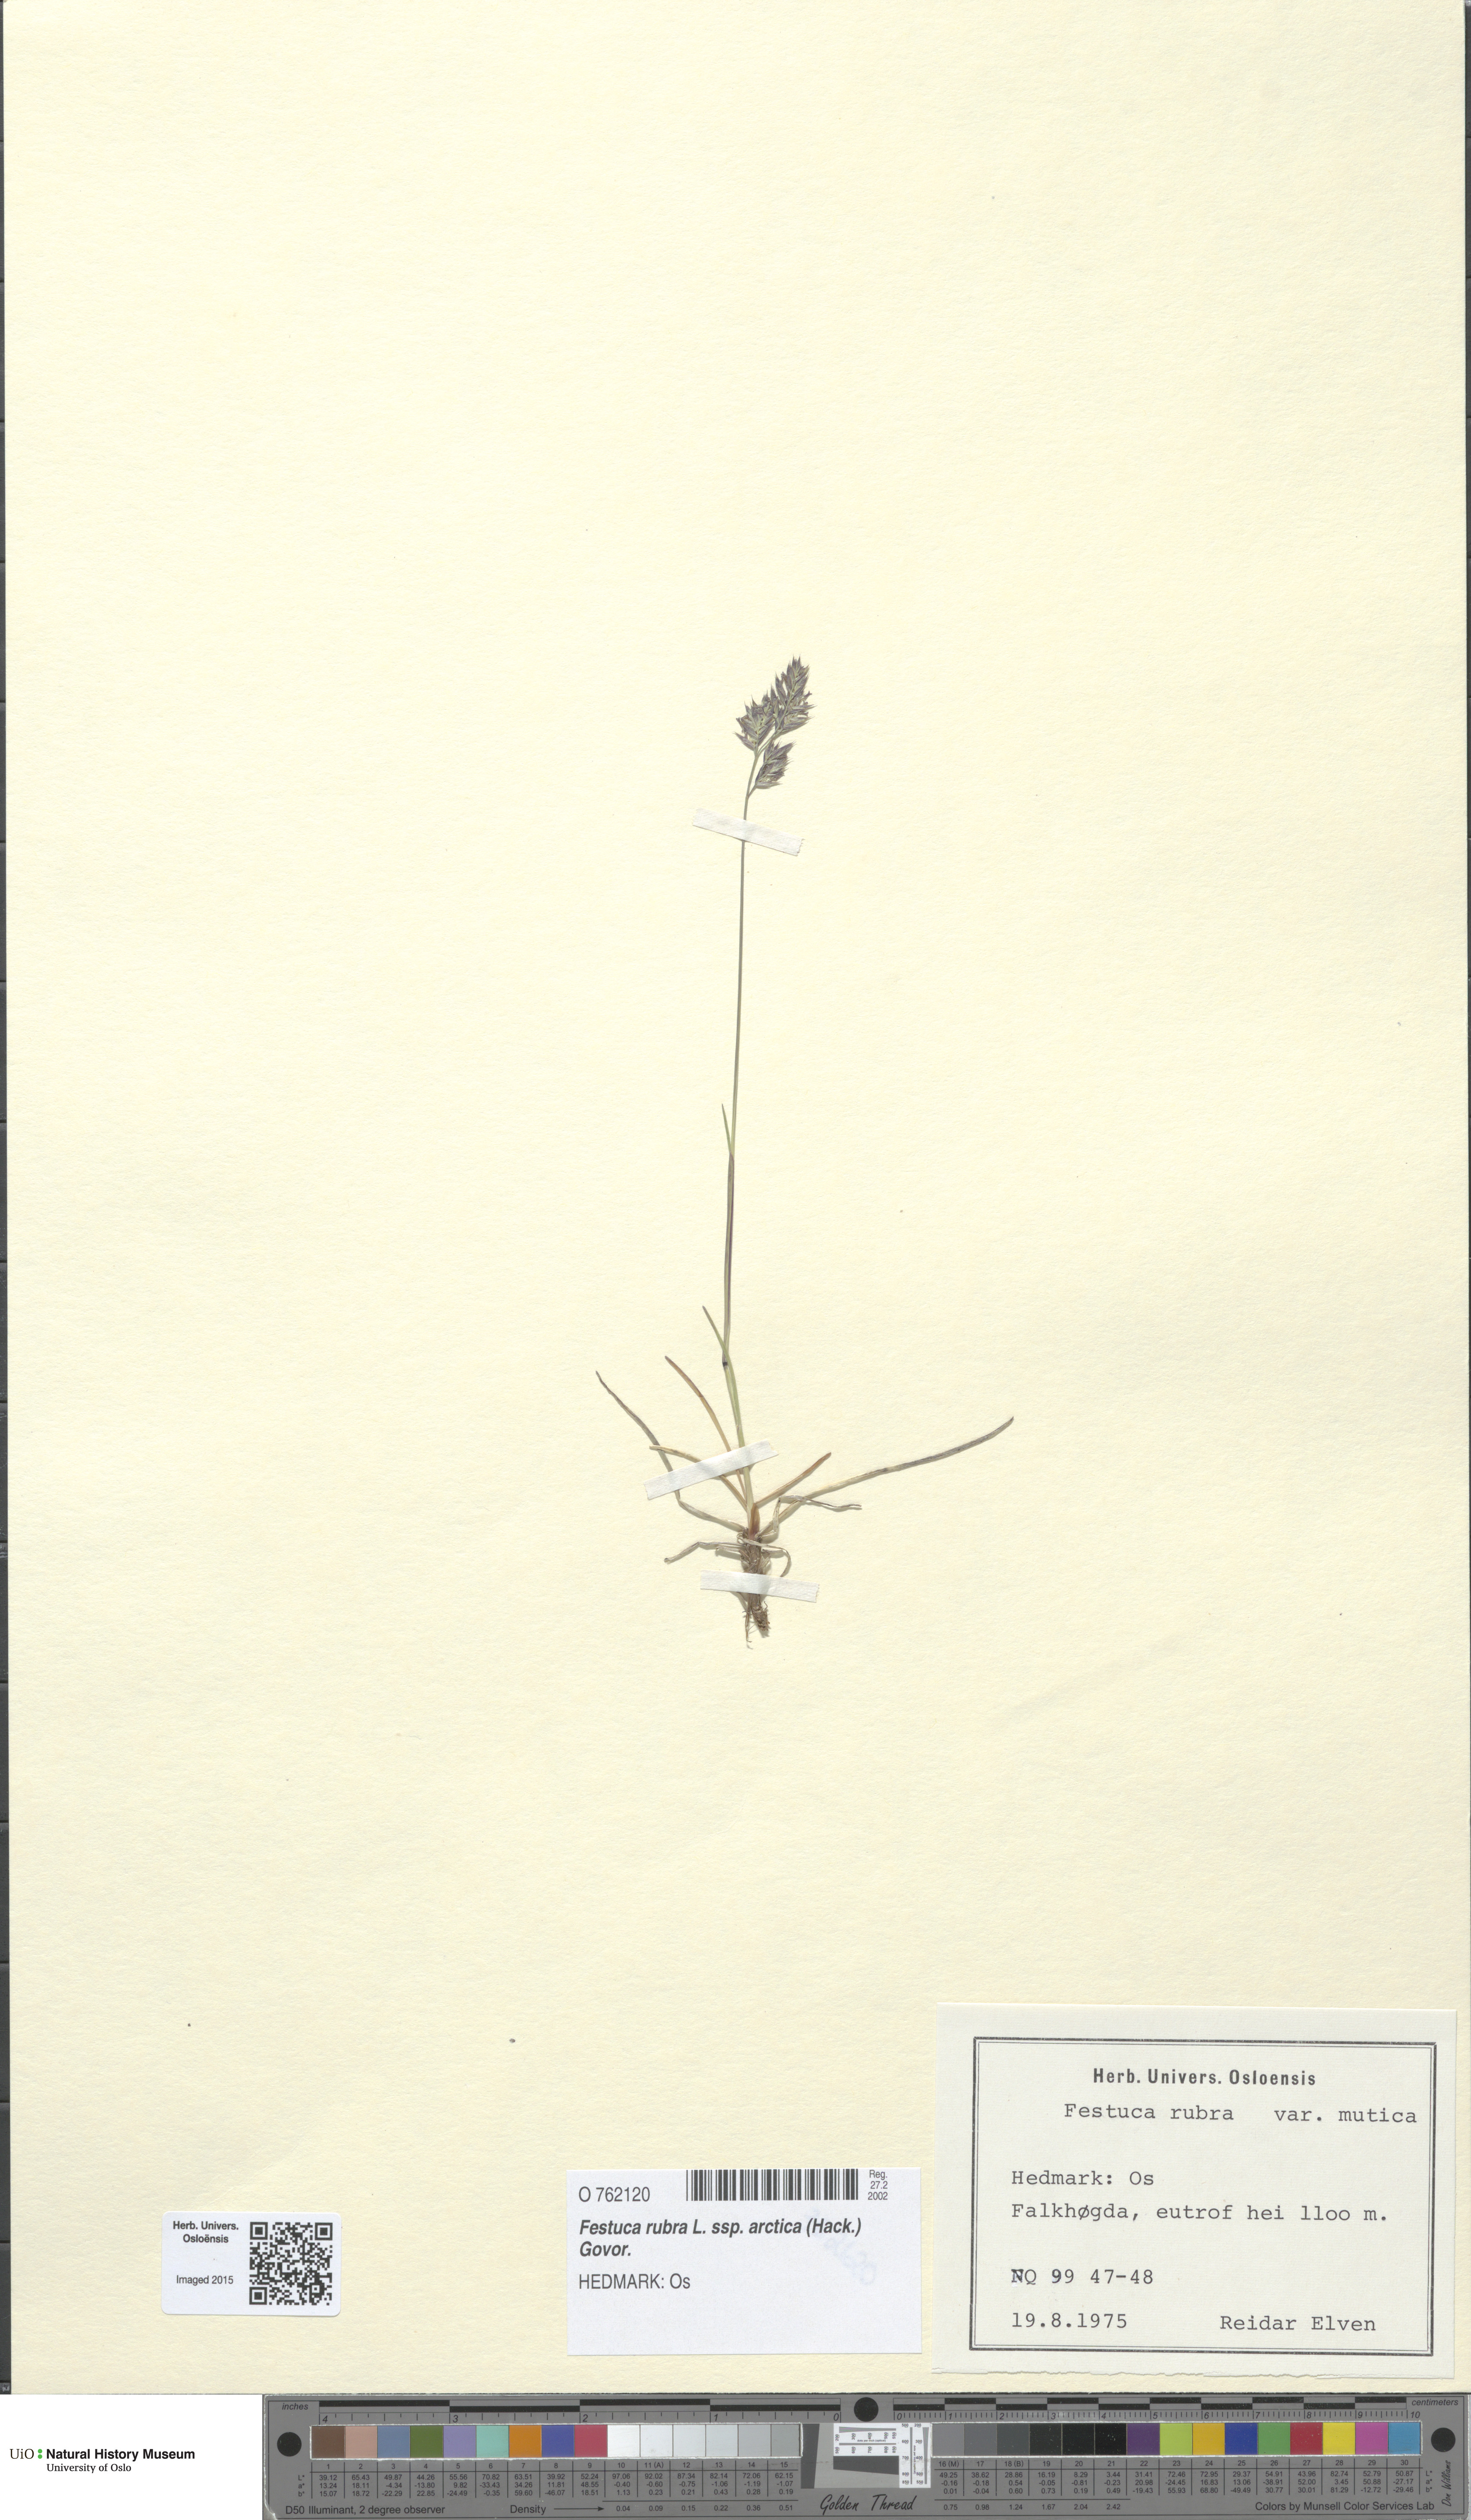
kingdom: Plantae
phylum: Tracheophyta
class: Liliopsida
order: Poales
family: Poaceae
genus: Festuca
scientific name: Festuca richardsonii
